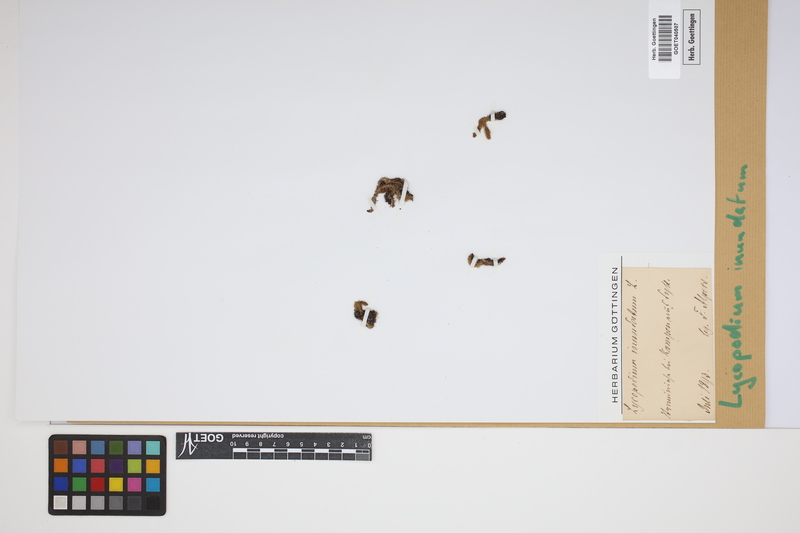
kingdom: Plantae
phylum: Tracheophyta
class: Lycopodiopsida
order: Lycopodiales
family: Lycopodiaceae
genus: Lycopodiella
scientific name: Lycopodiella inundata
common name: Marsh clubmoss
